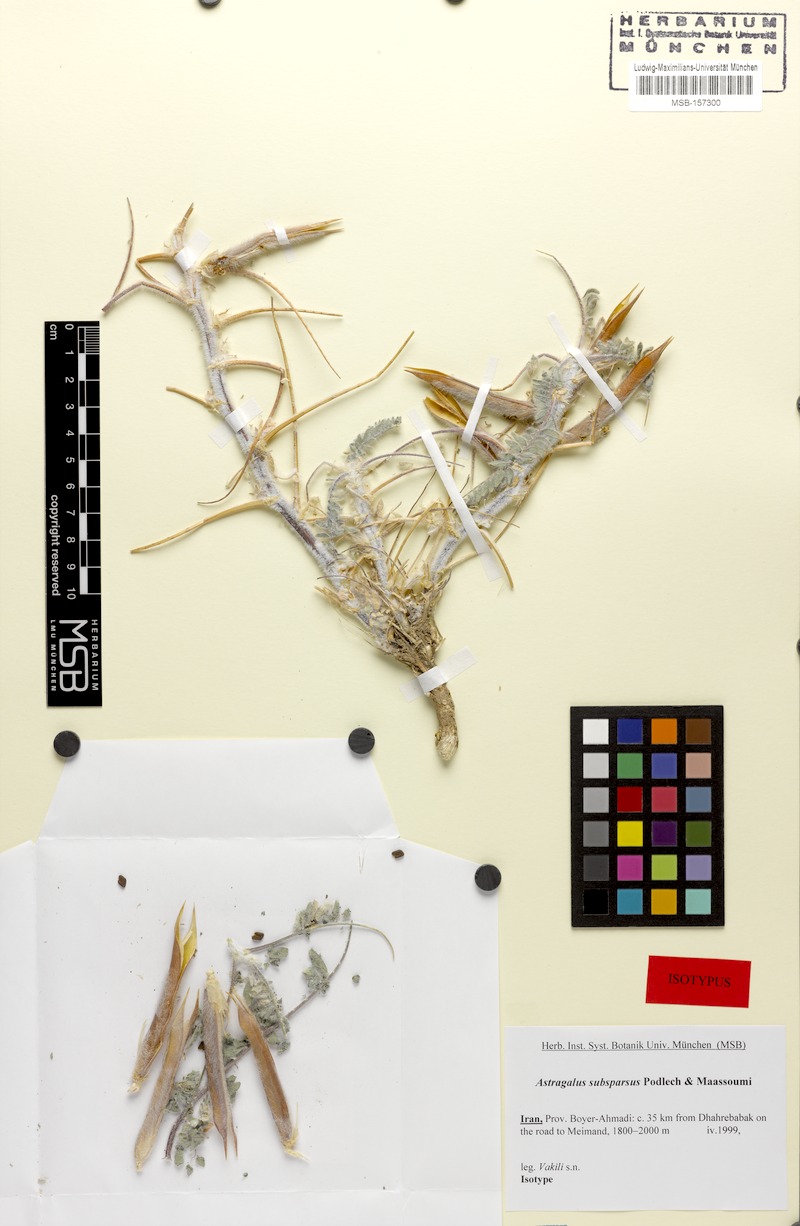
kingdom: Plantae
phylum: Tracheophyta
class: Magnoliopsida
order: Fabales
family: Fabaceae
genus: Astragalus
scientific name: Astragalus
